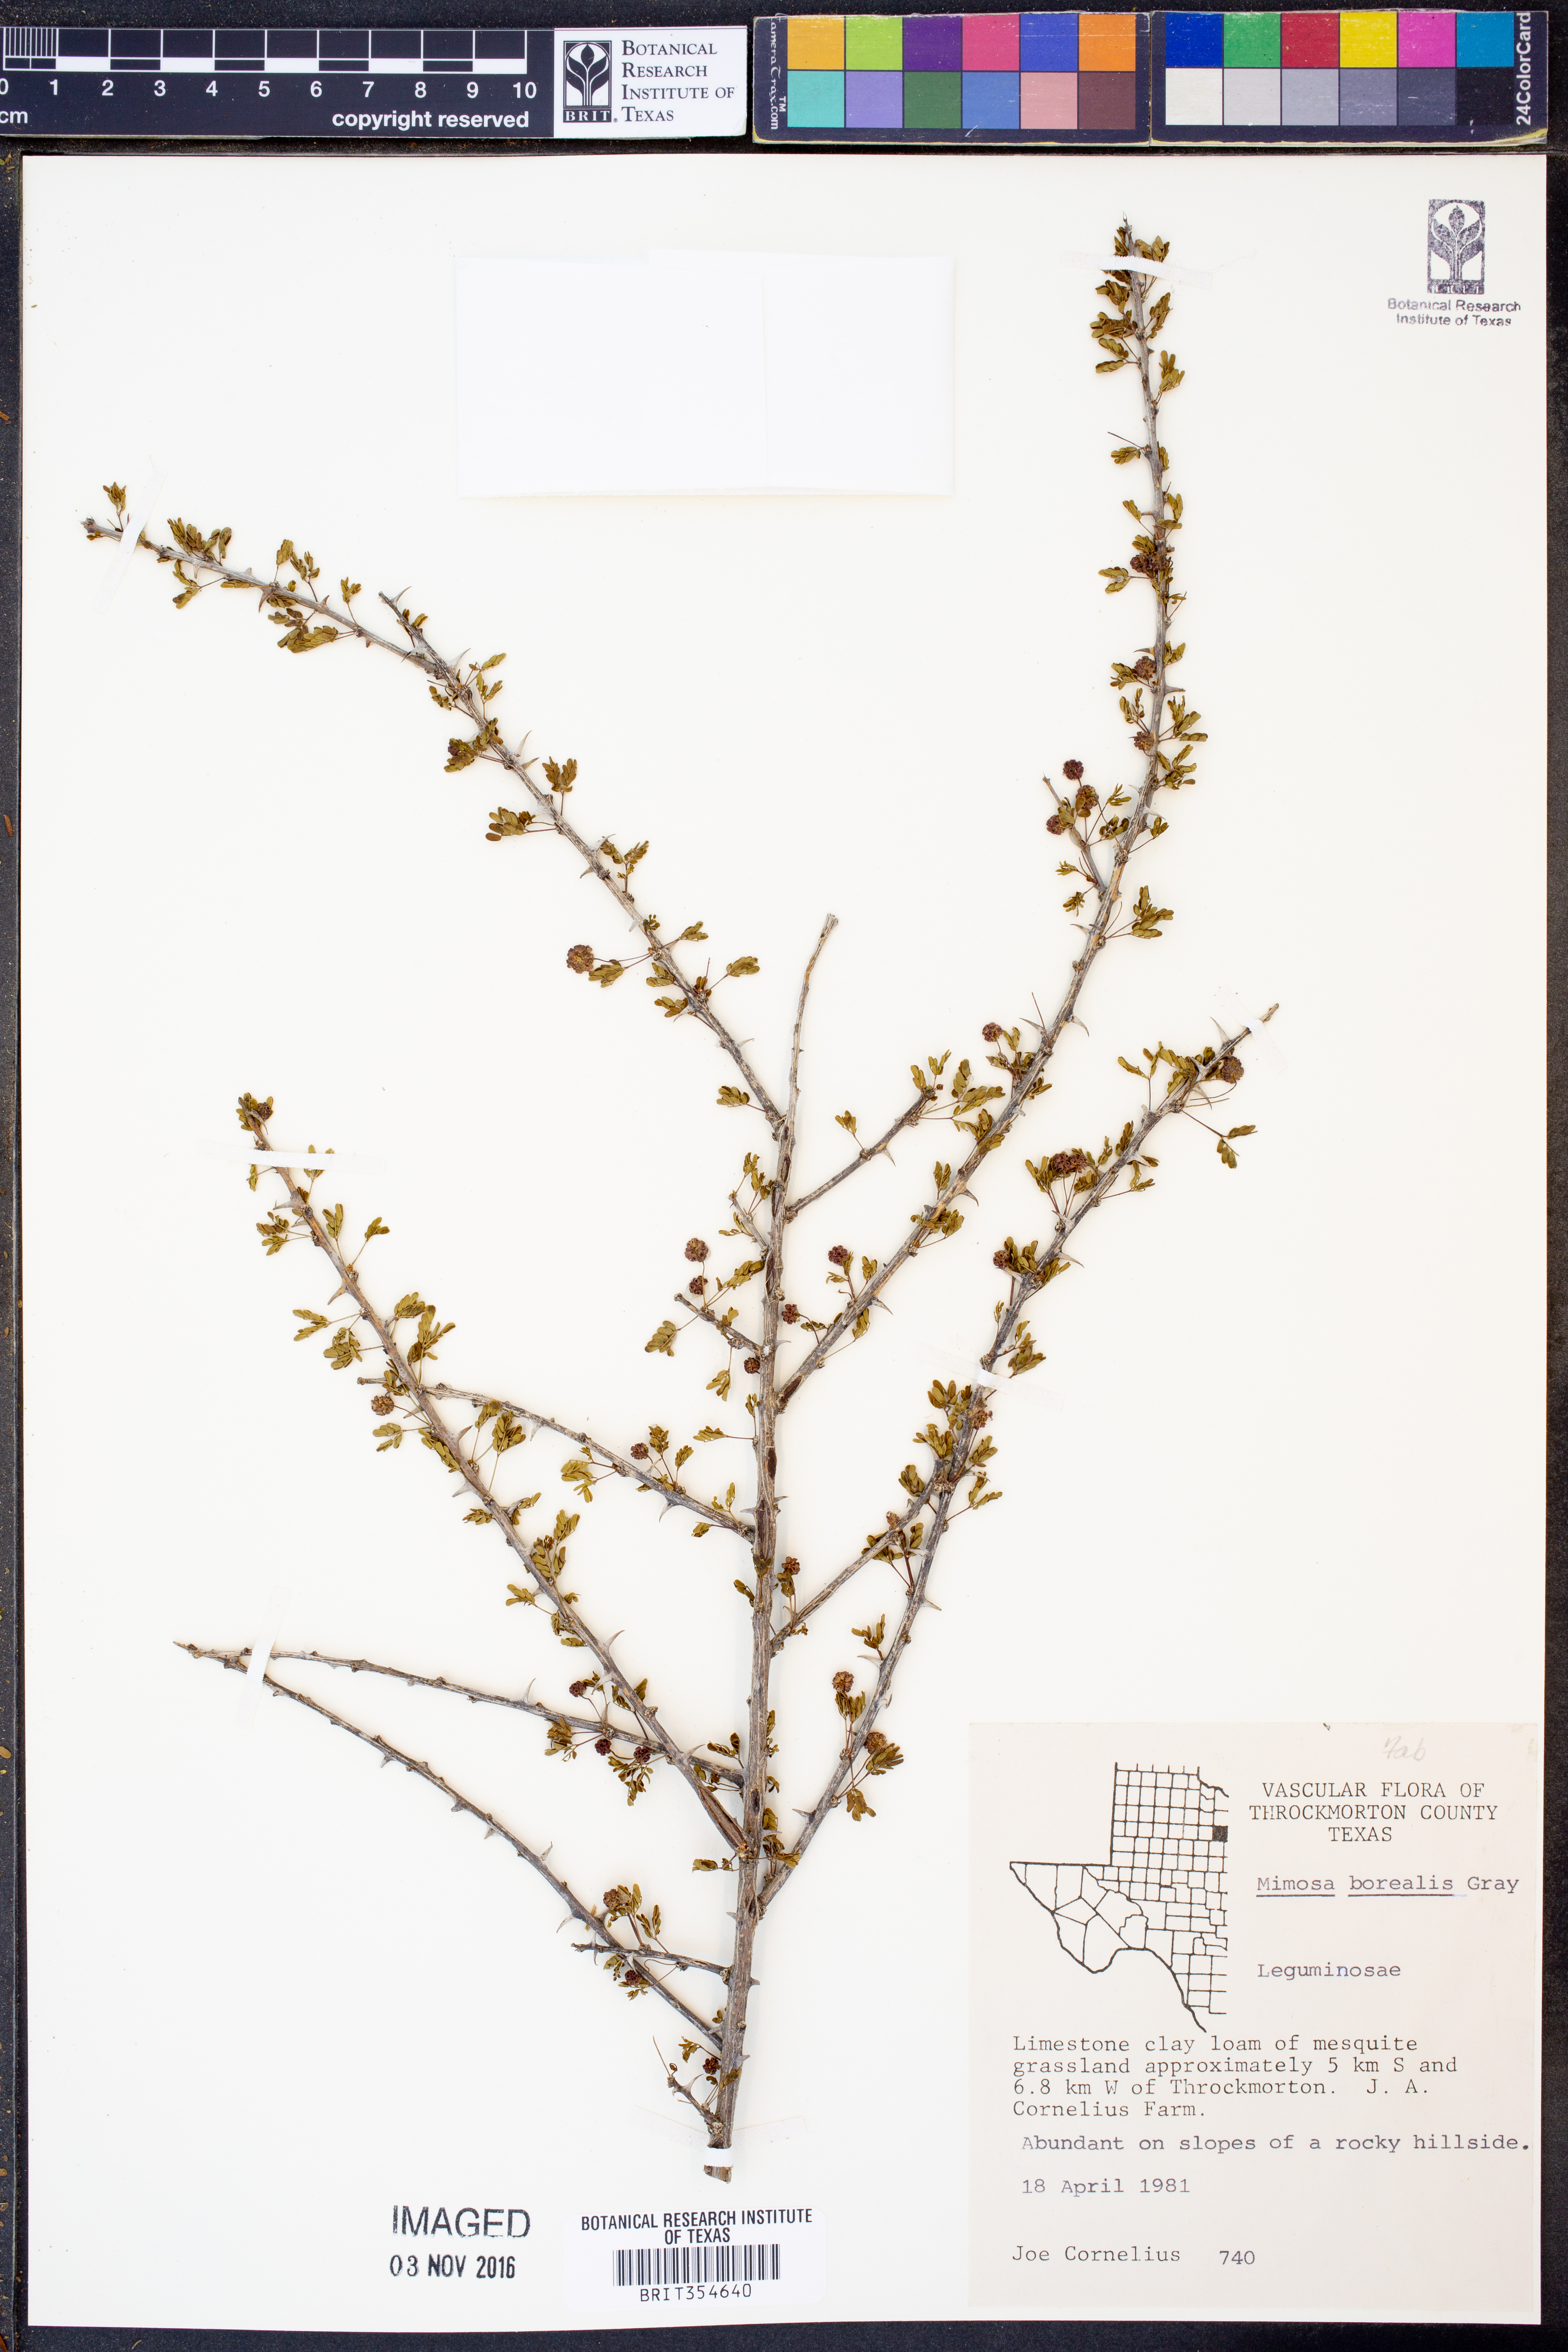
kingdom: Plantae
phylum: Tracheophyta
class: Magnoliopsida
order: Fabales
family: Fabaceae
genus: Mimosa
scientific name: Mimosa borealis
